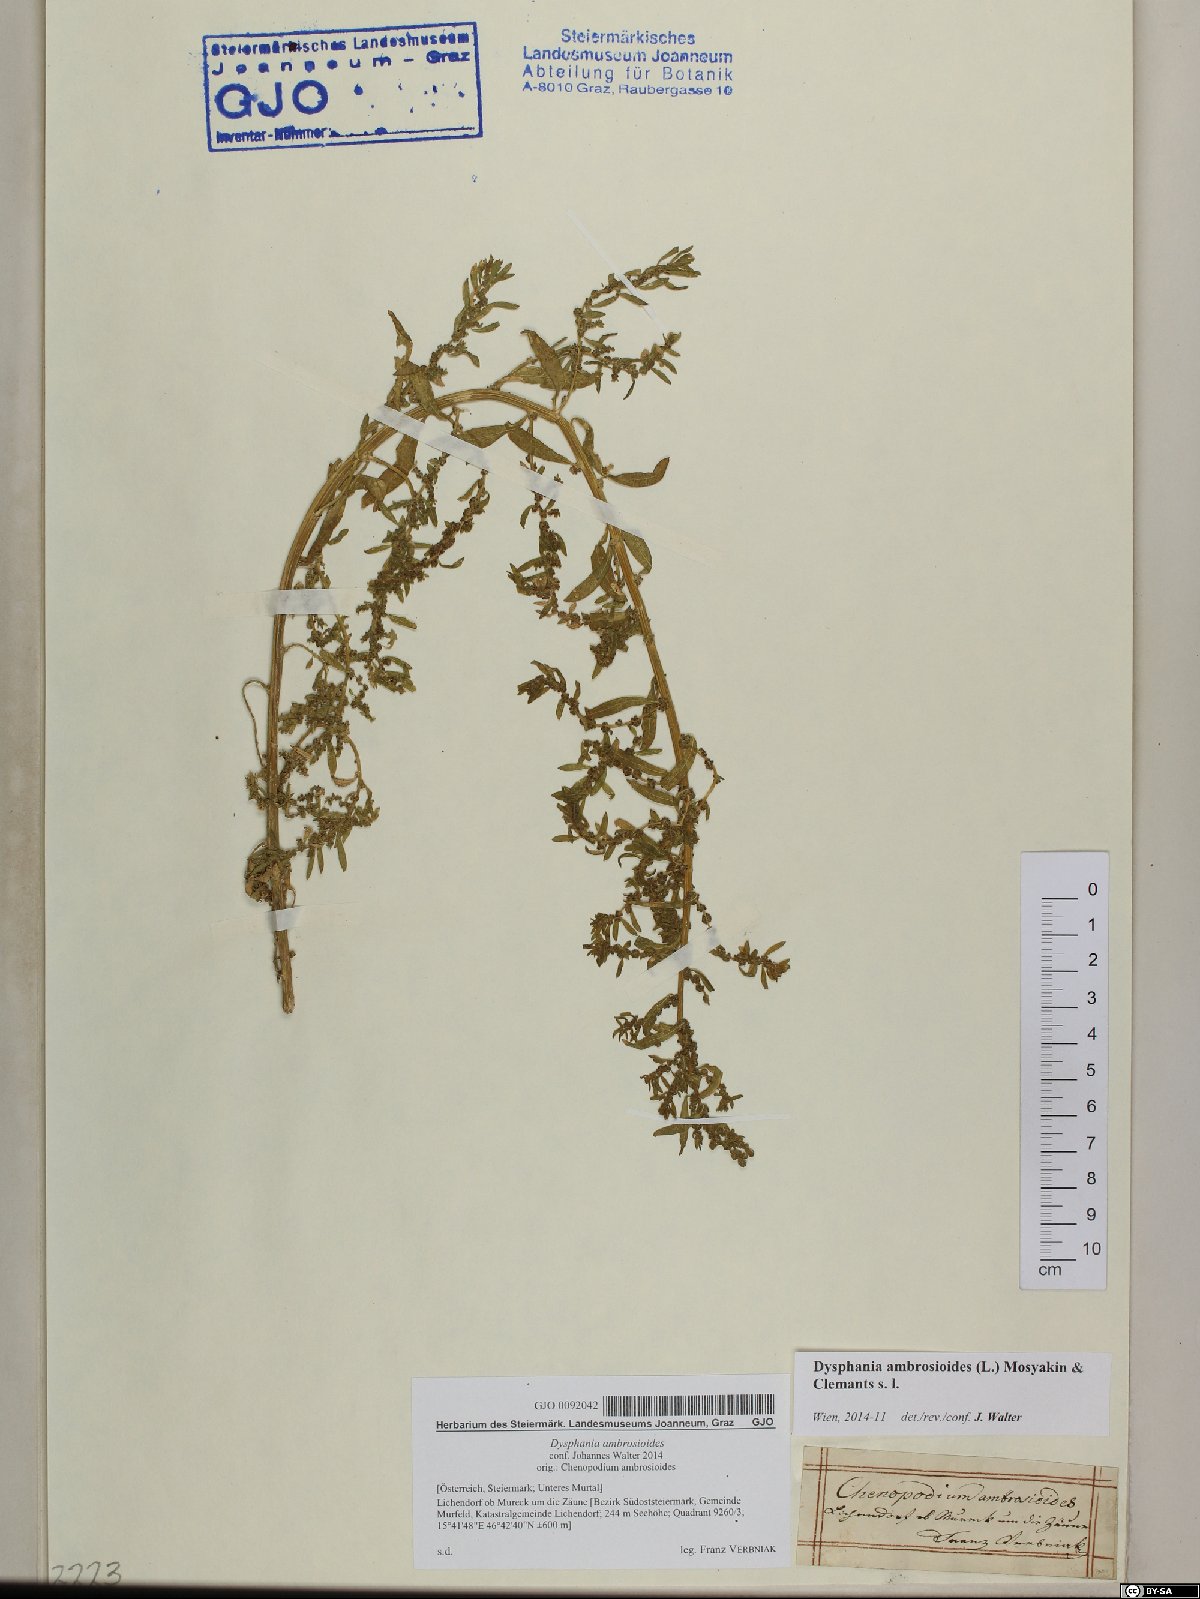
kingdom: Plantae
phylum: Tracheophyta
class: Magnoliopsida
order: Caryophyllales
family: Amaranthaceae
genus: Dysphania
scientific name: Dysphania ambrosioides
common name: Wormseed
